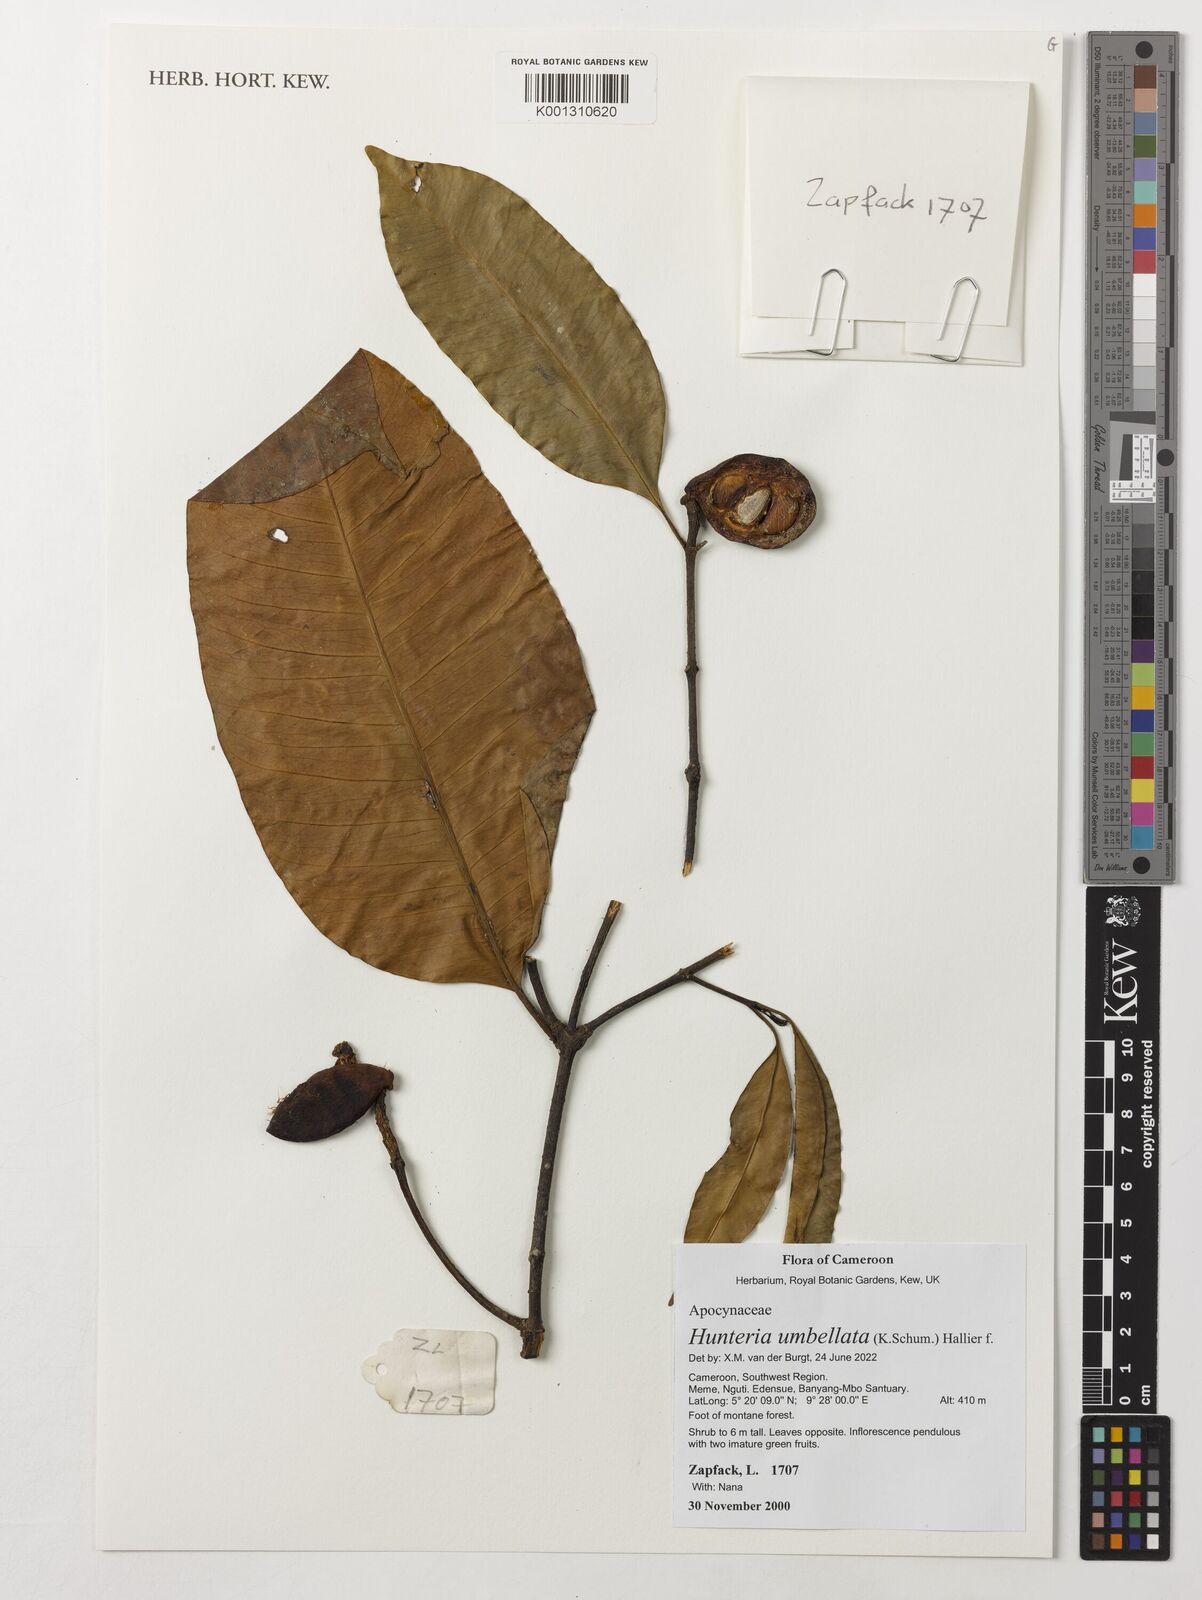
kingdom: Plantae
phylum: Tracheophyta
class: Magnoliopsida
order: Gentianales
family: Apocynaceae
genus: Hunteria
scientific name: Hunteria umbellata
